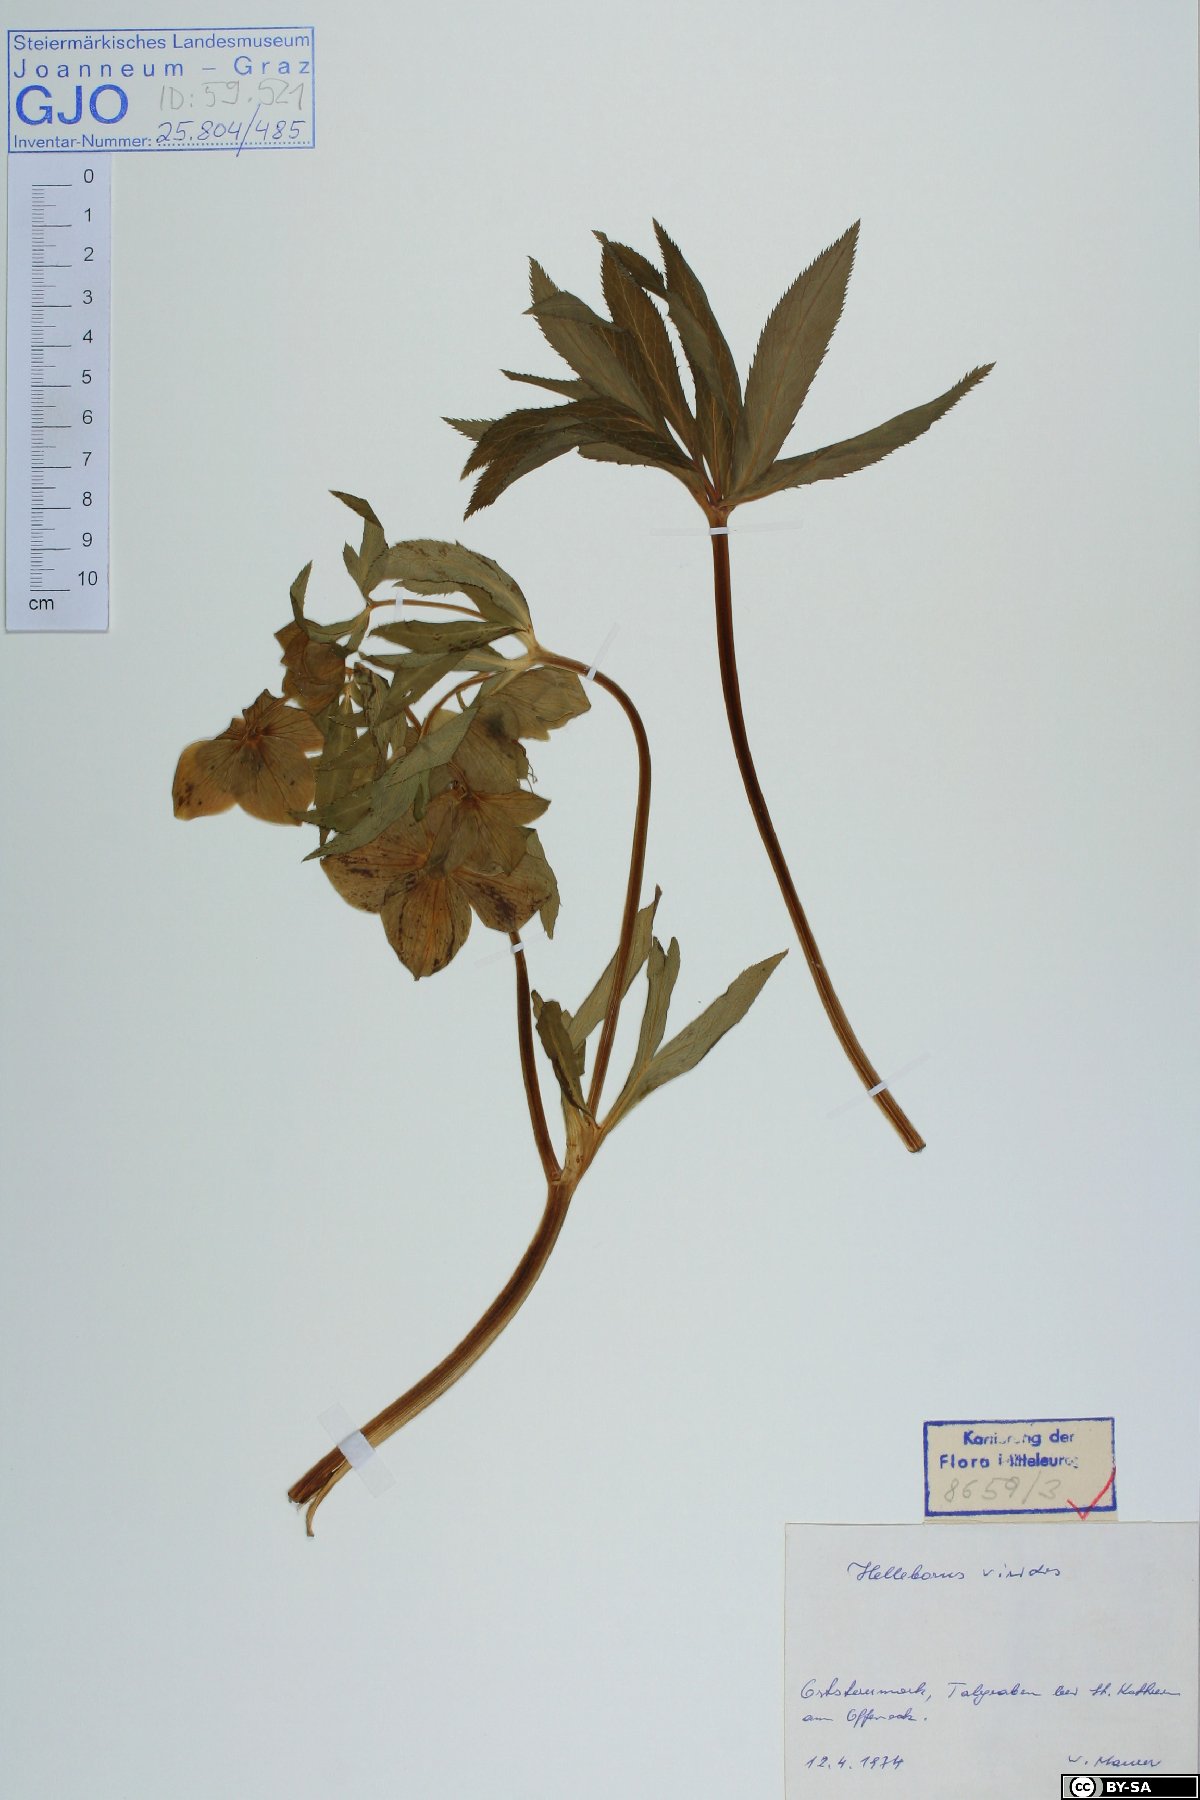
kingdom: Plantae
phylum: Tracheophyta
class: Magnoliopsida
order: Ranunculales
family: Ranunculaceae
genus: Helleborus
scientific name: Helleborus viridis
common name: Green hellebore
